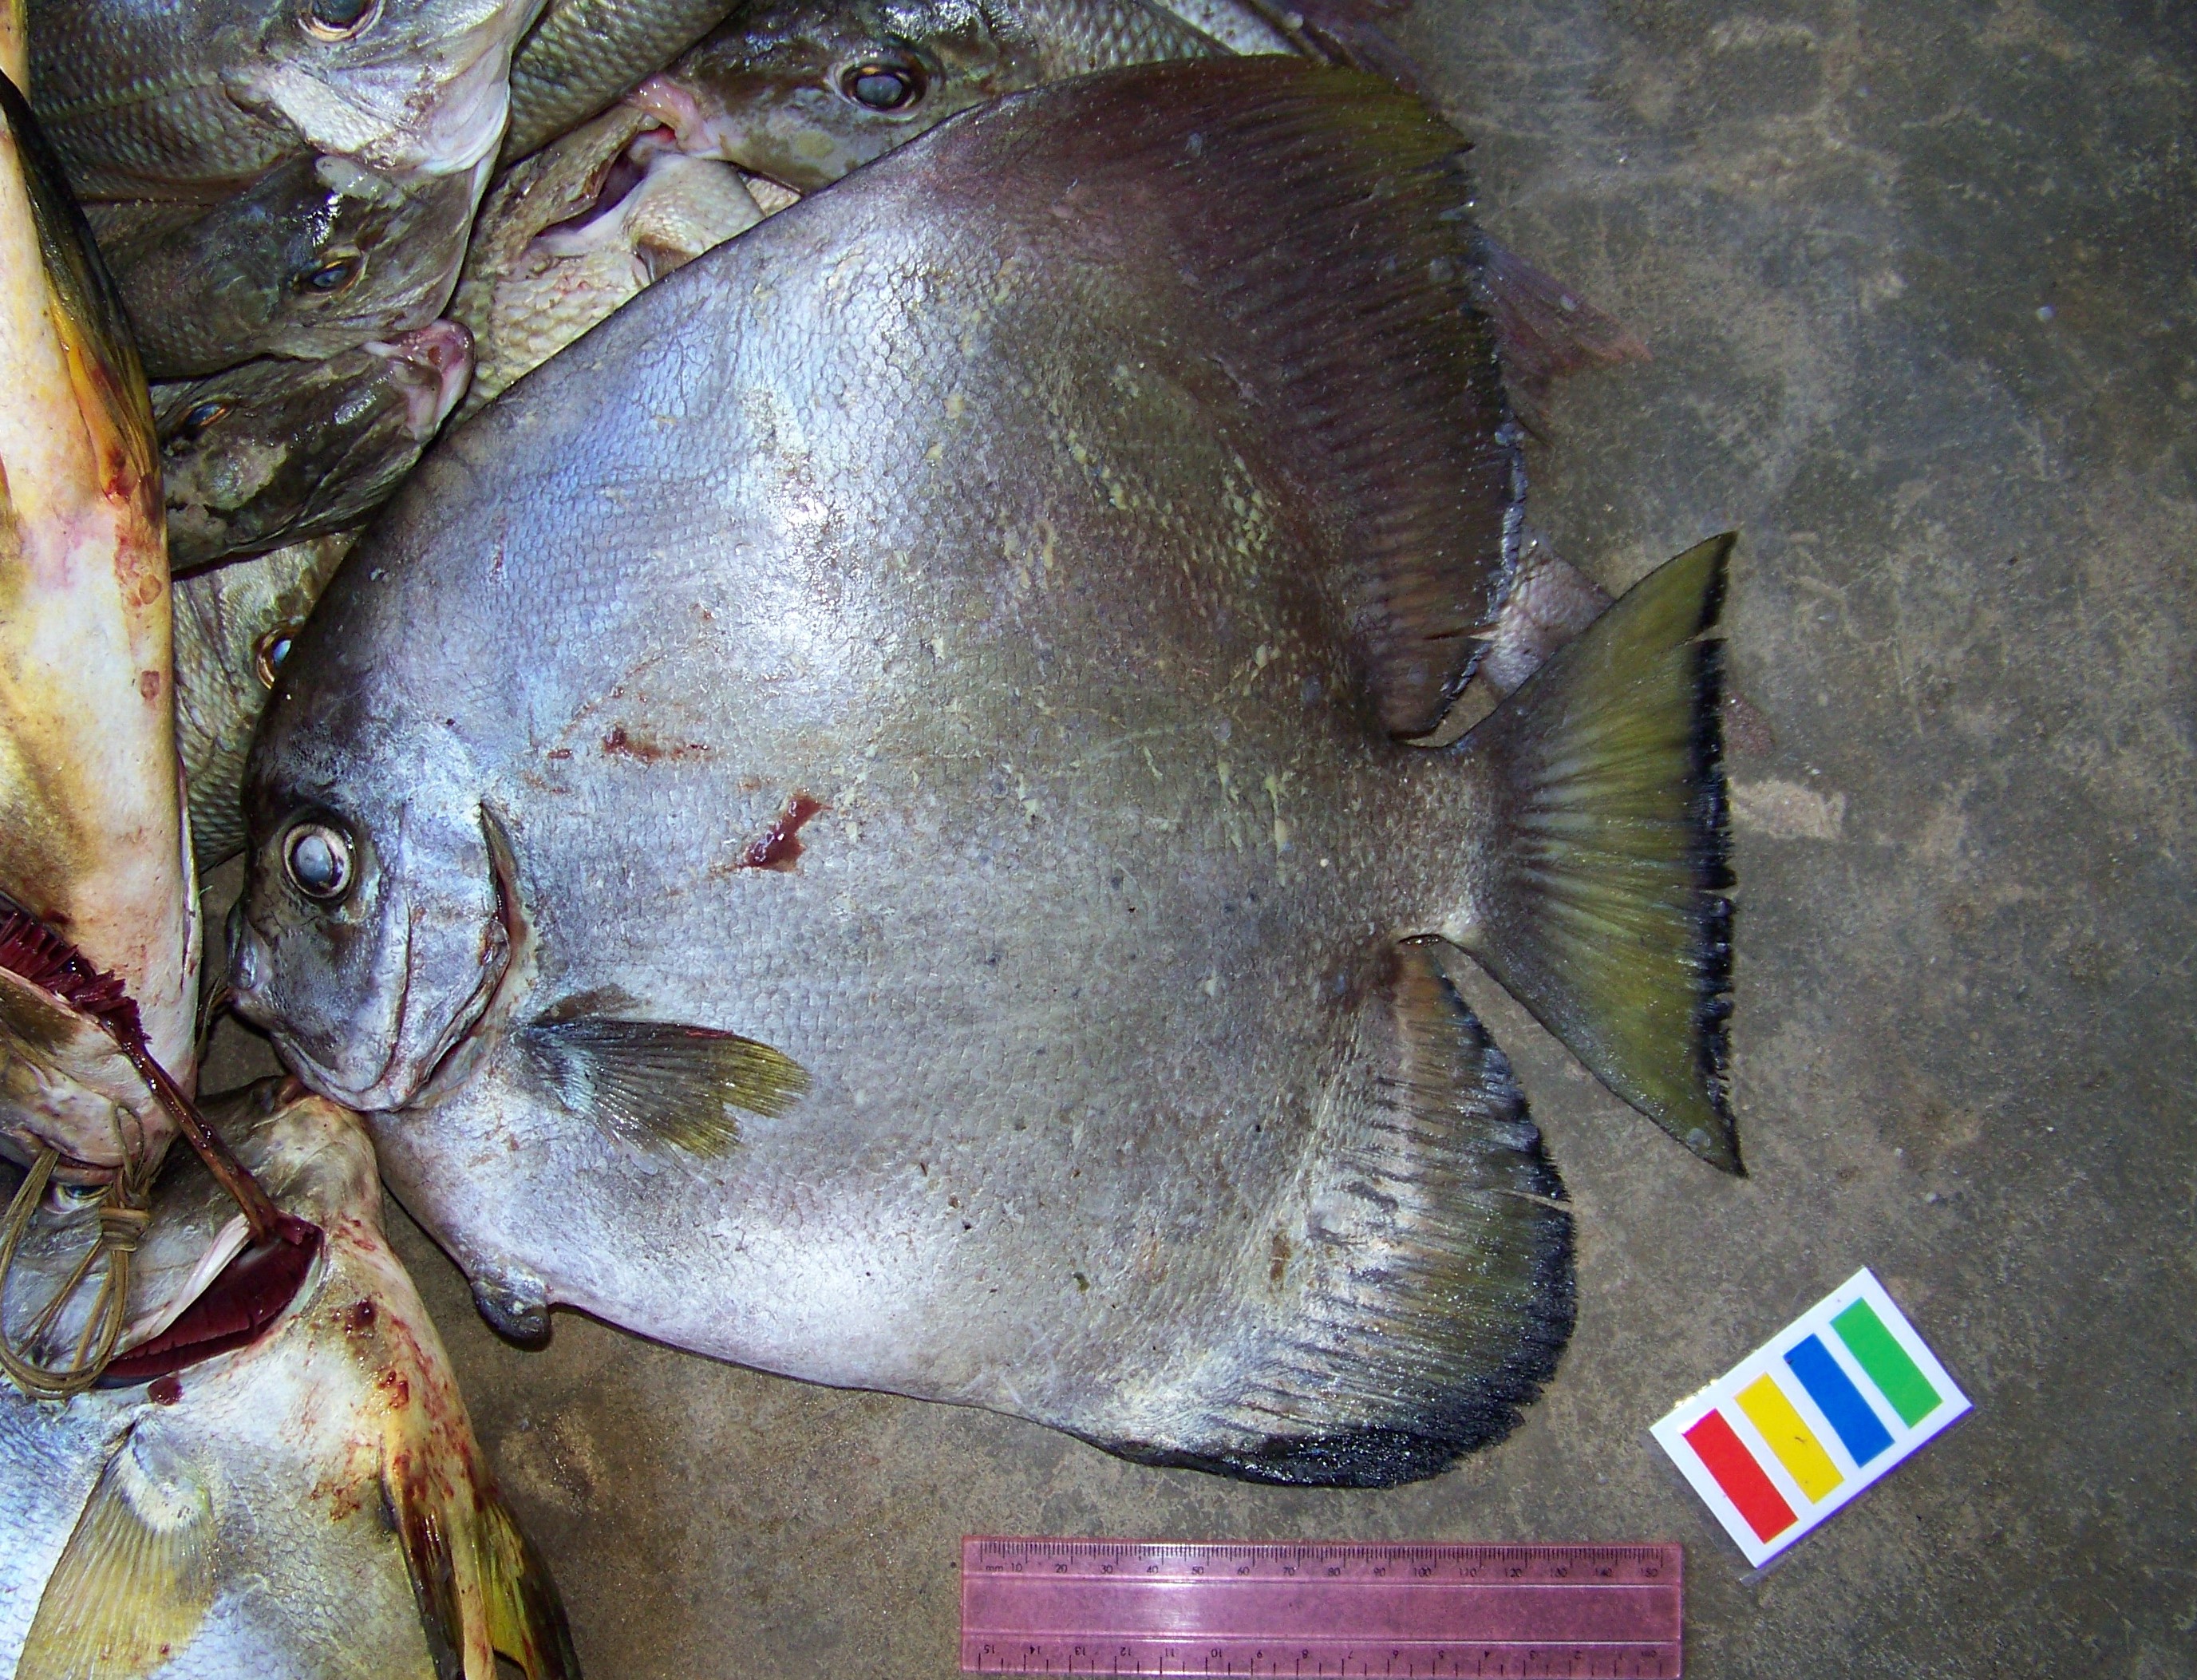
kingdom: Animalia
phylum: Chordata
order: Perciformes
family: Ephippidae
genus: Platax
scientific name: Platax boersii
